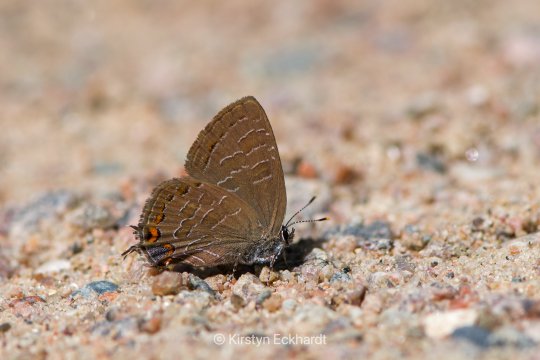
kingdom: Animalia
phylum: Arthropoda
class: Insecta
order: Lepidoptera
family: Lycaenidae
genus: Satyrium
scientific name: Satyrium liparops
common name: Striped Hairstreak
